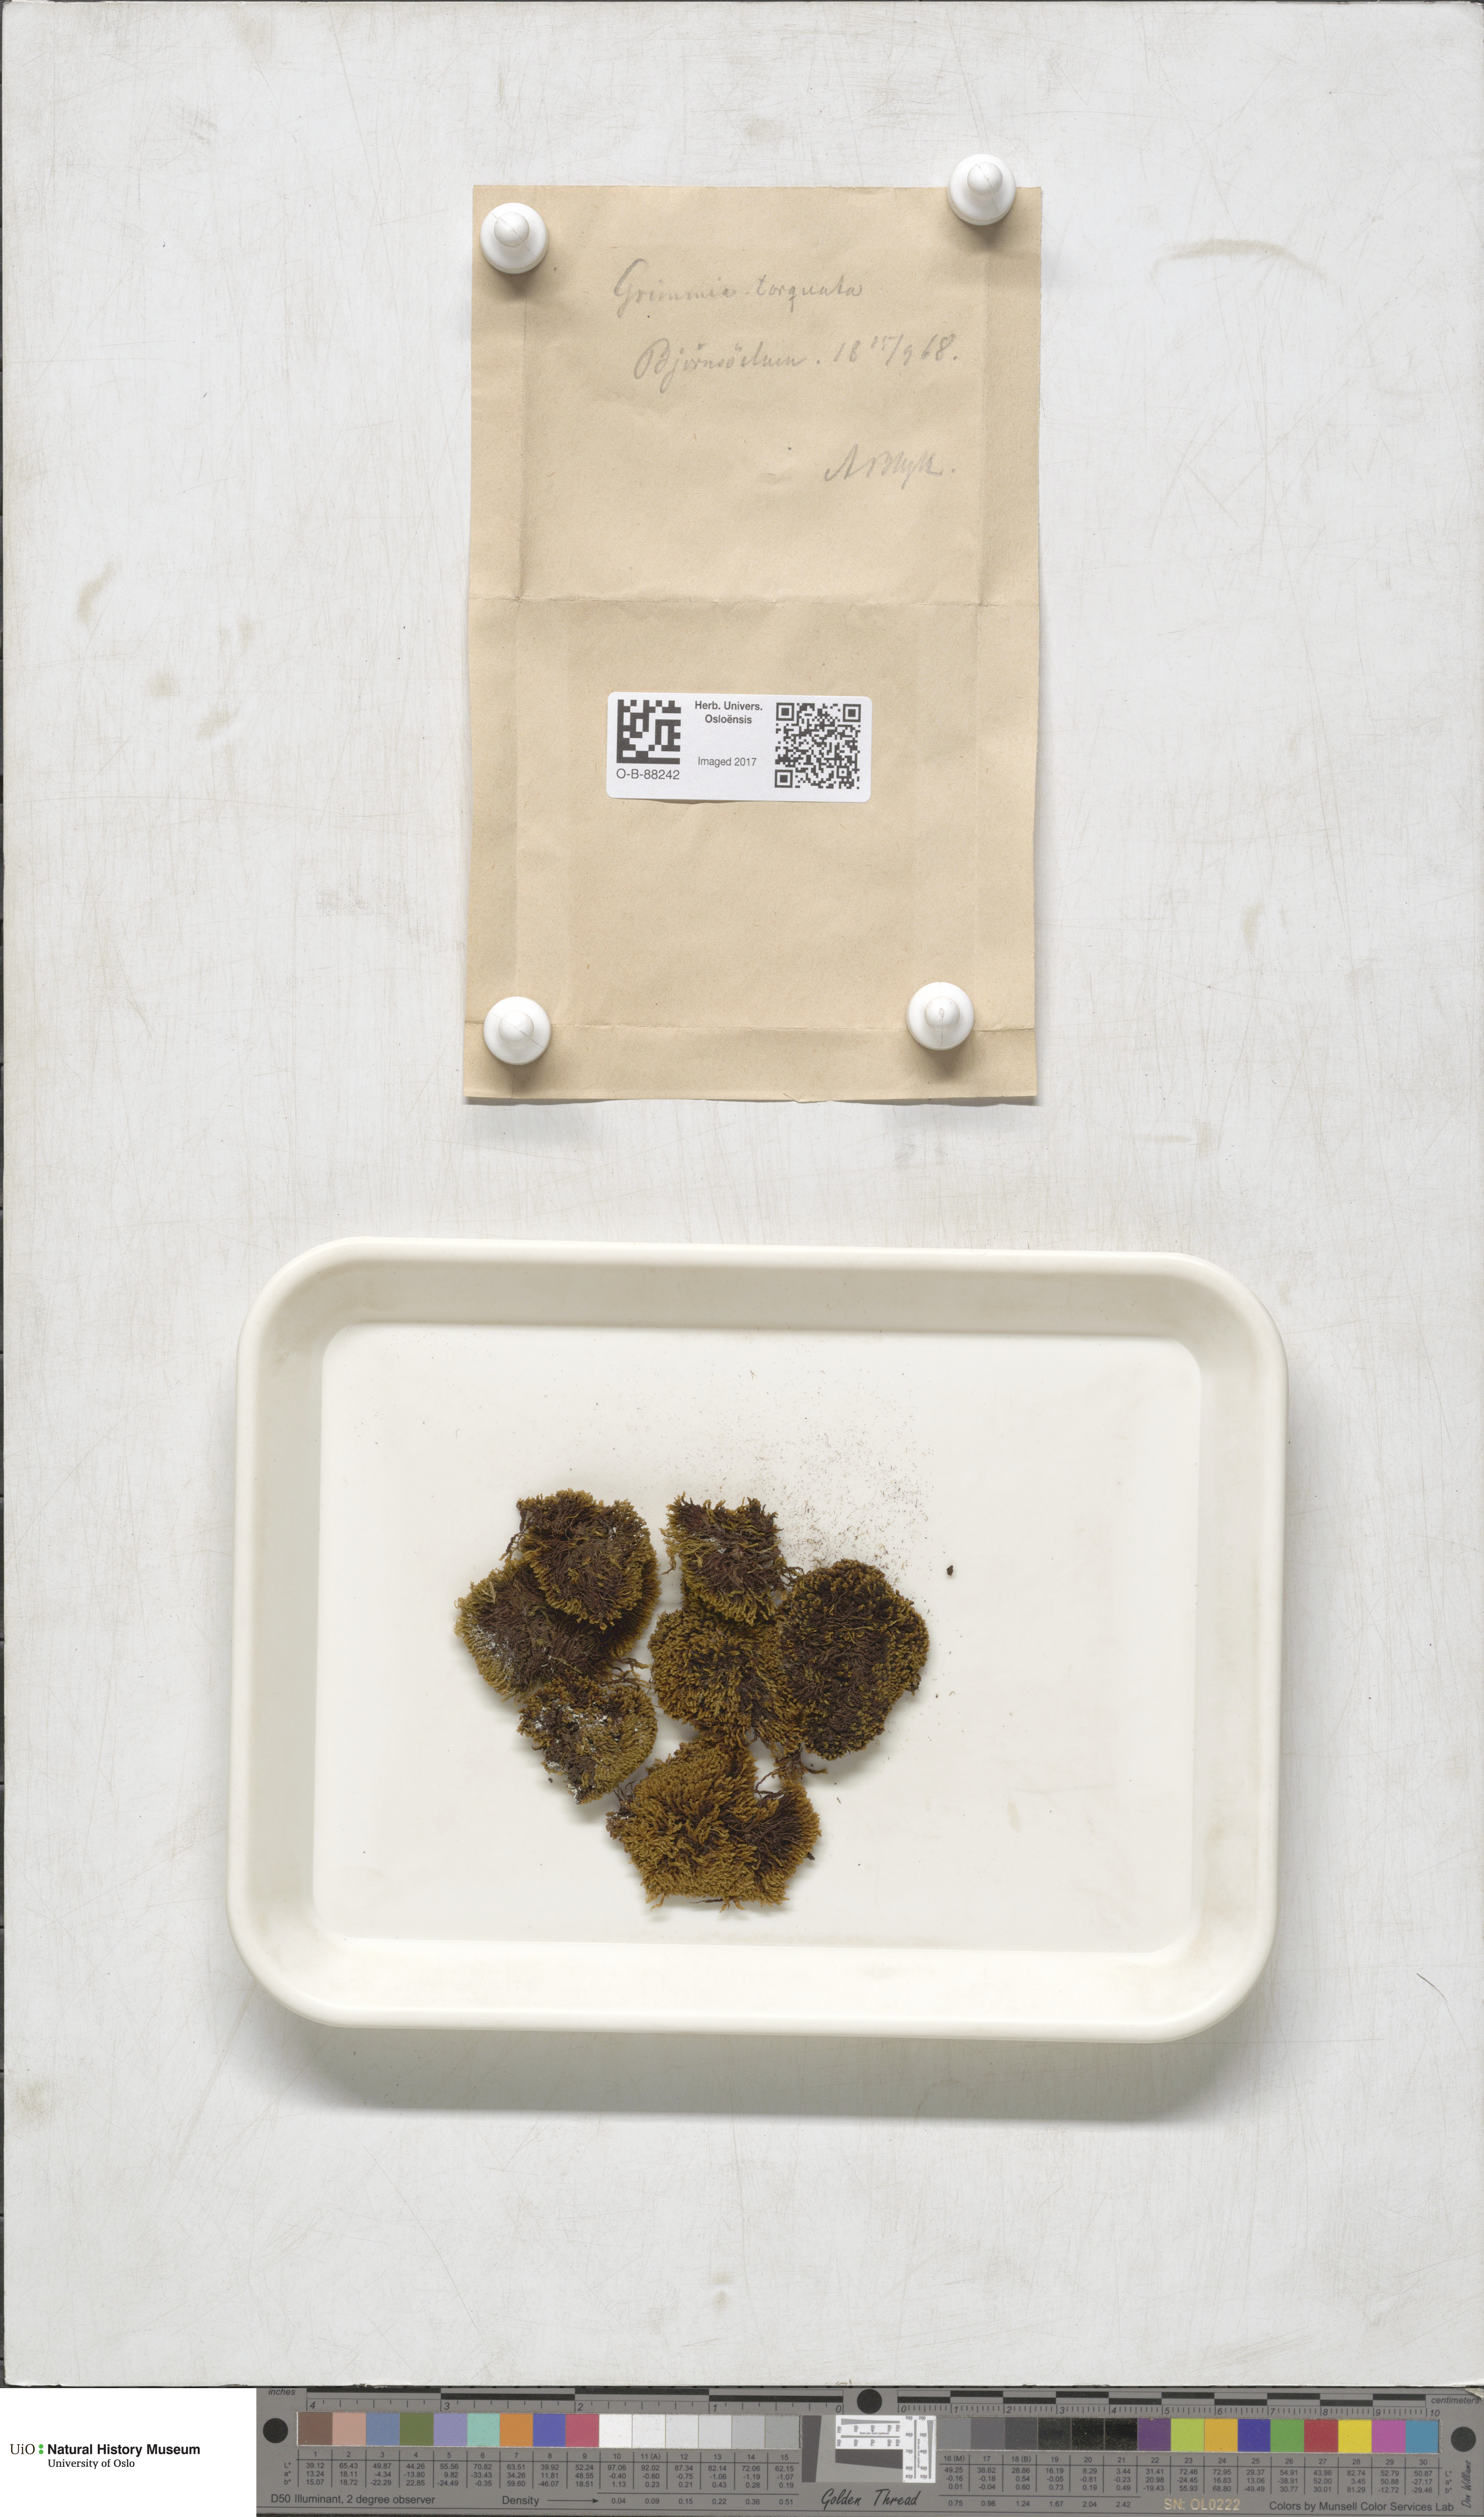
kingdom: Plantae
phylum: Bryophyta
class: Bryopsida
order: Grimmiales
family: Grimmiaceae
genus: Grimmia
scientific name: Grimmia torquata
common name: Twisted grimmia
